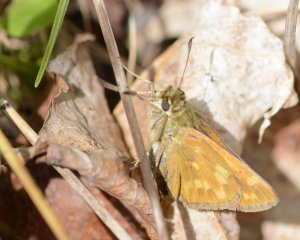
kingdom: Animalia
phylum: Arthropoda
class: Insecta
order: Lepidoptera
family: Hesperiidae
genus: Hesperia
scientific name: Hesperia sassacus
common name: Sassacus Skipper
